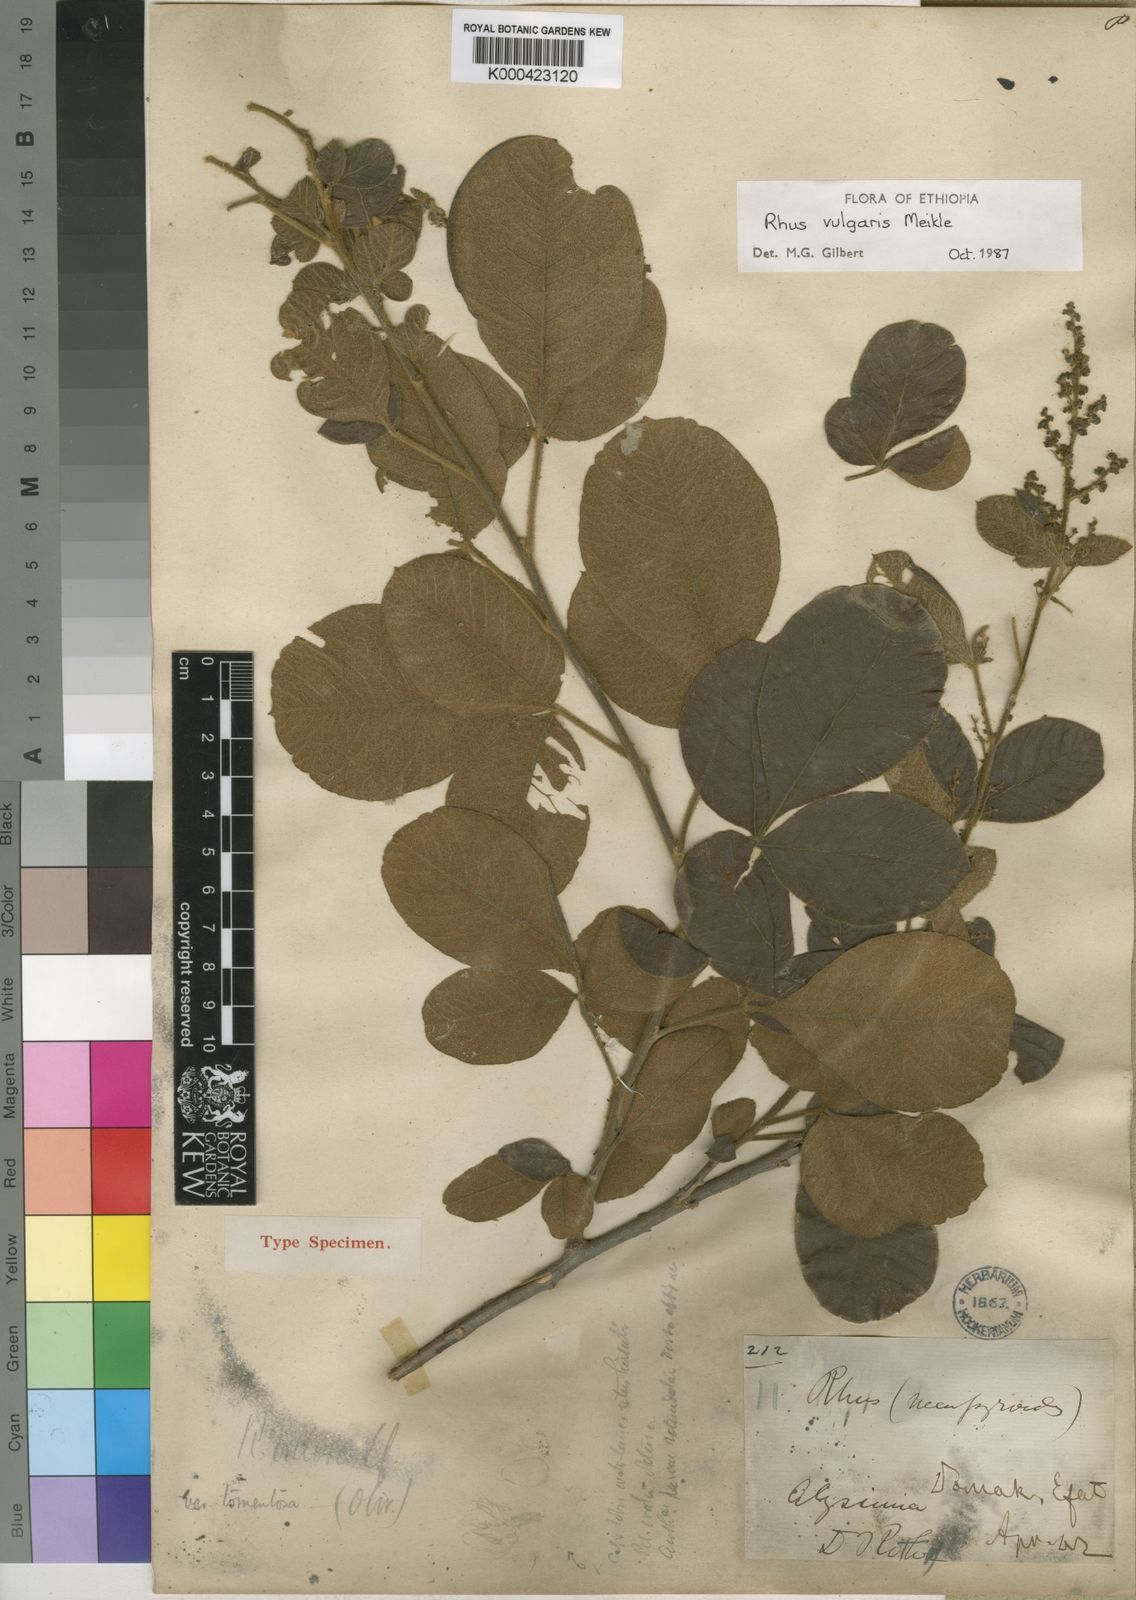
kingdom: Plantae
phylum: Tracheophyta
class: Magnoliopsida
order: Sapindales
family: Anacardiaceae
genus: Searsia
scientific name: Searsia pyroides
